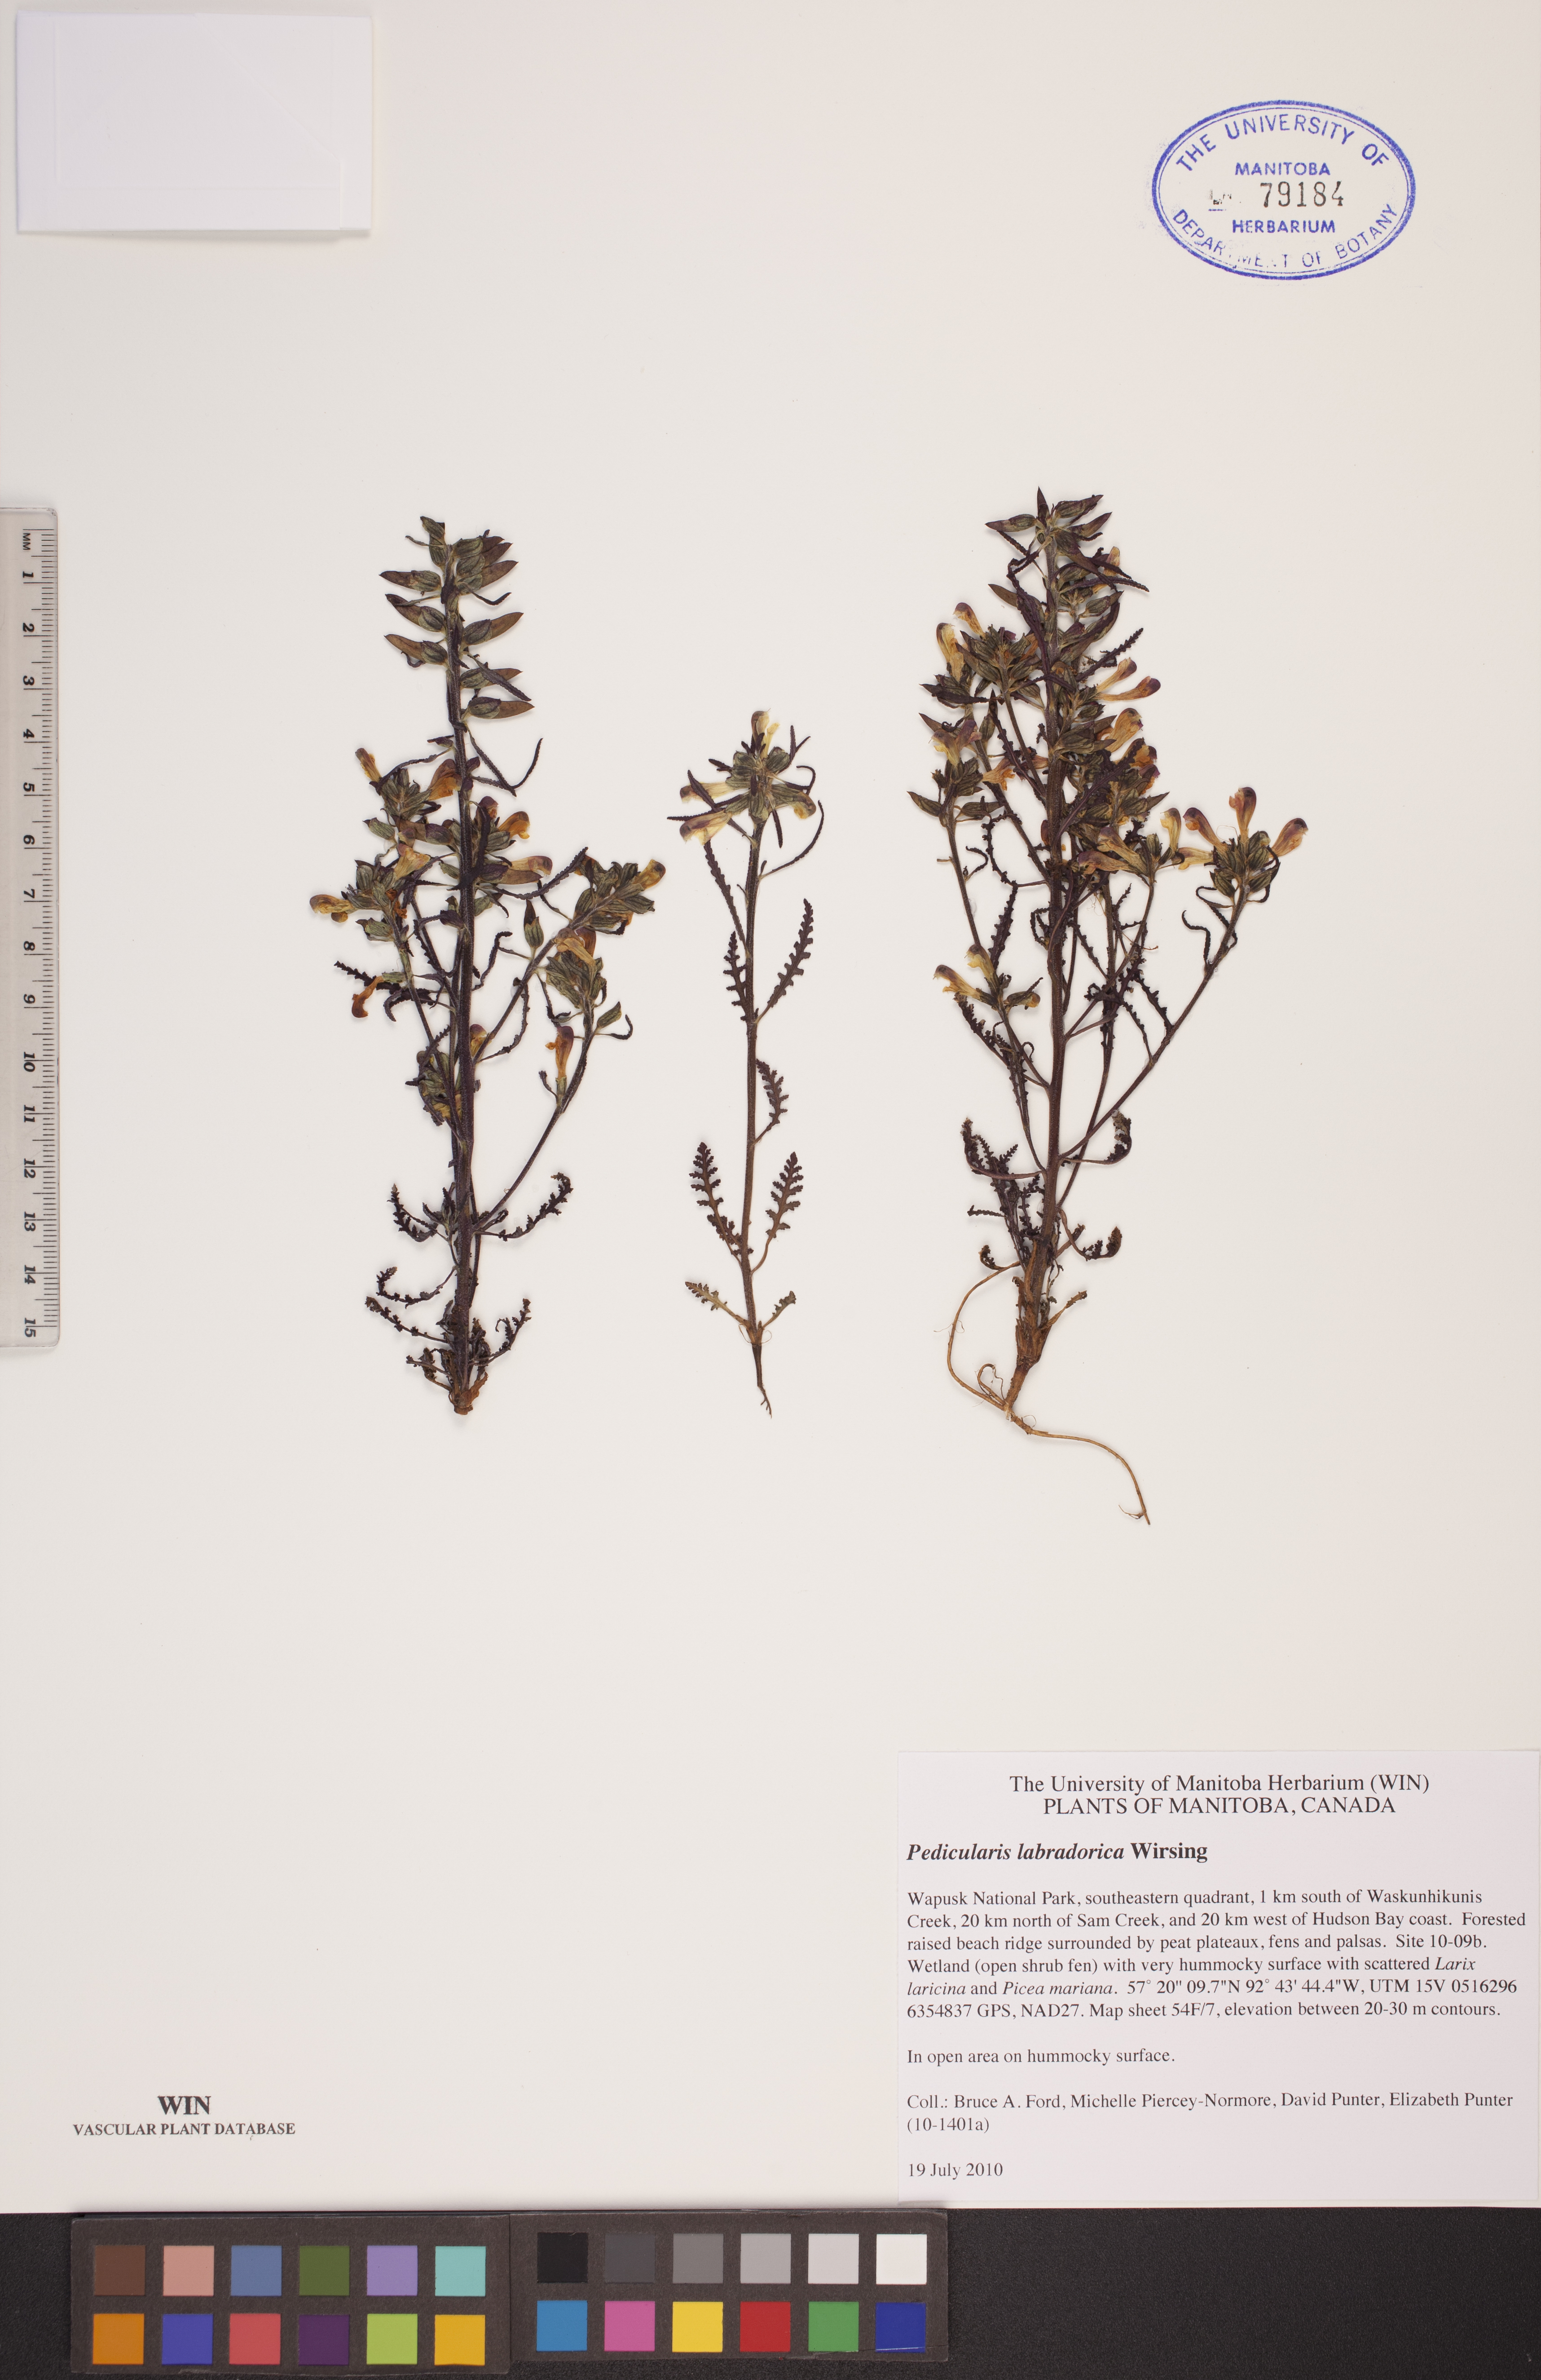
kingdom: Plantae
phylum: Tracheophyta
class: Magnoliopsida
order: Lamiales
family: Orobanchaceae
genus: Pedicularis
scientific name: Pedicularis labradorica
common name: Labrador lousewort
